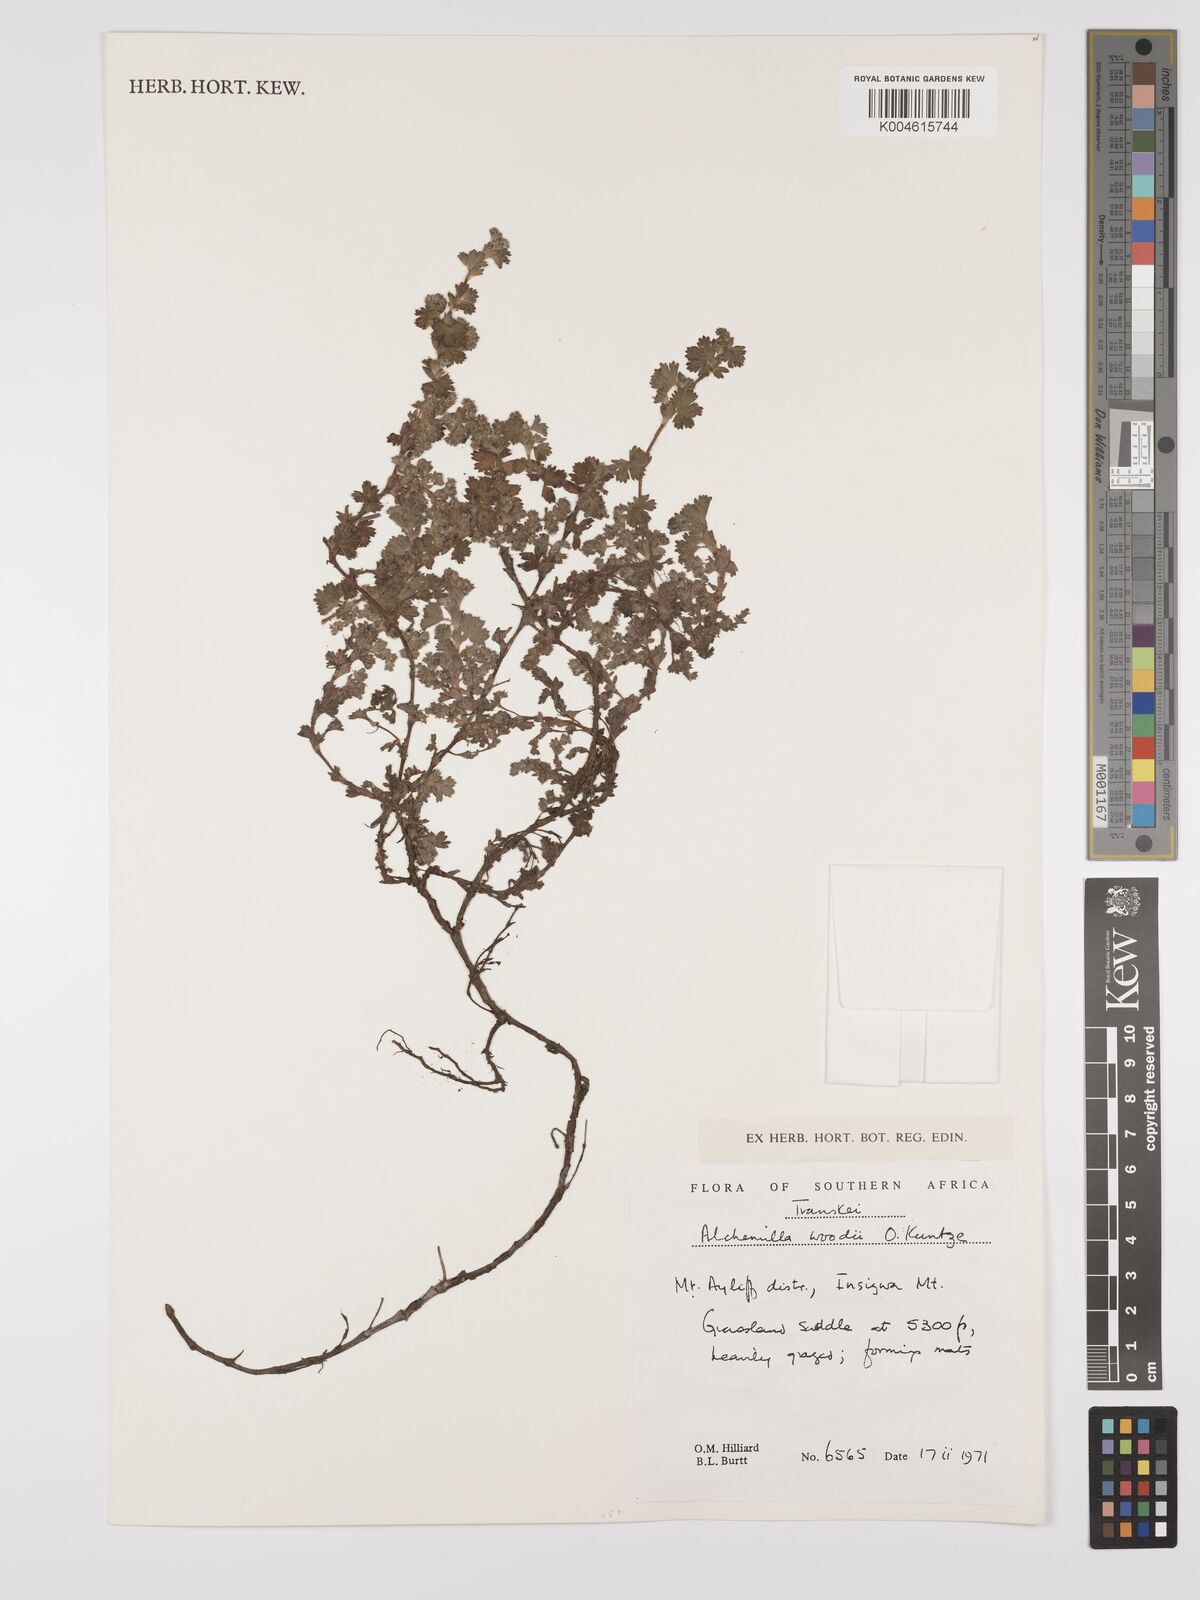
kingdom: Plantae
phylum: Tracheophyta
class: Magnoliopsida
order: Rosales
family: Rosaceae
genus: Alchemilla
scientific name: Alchemilla woodii
